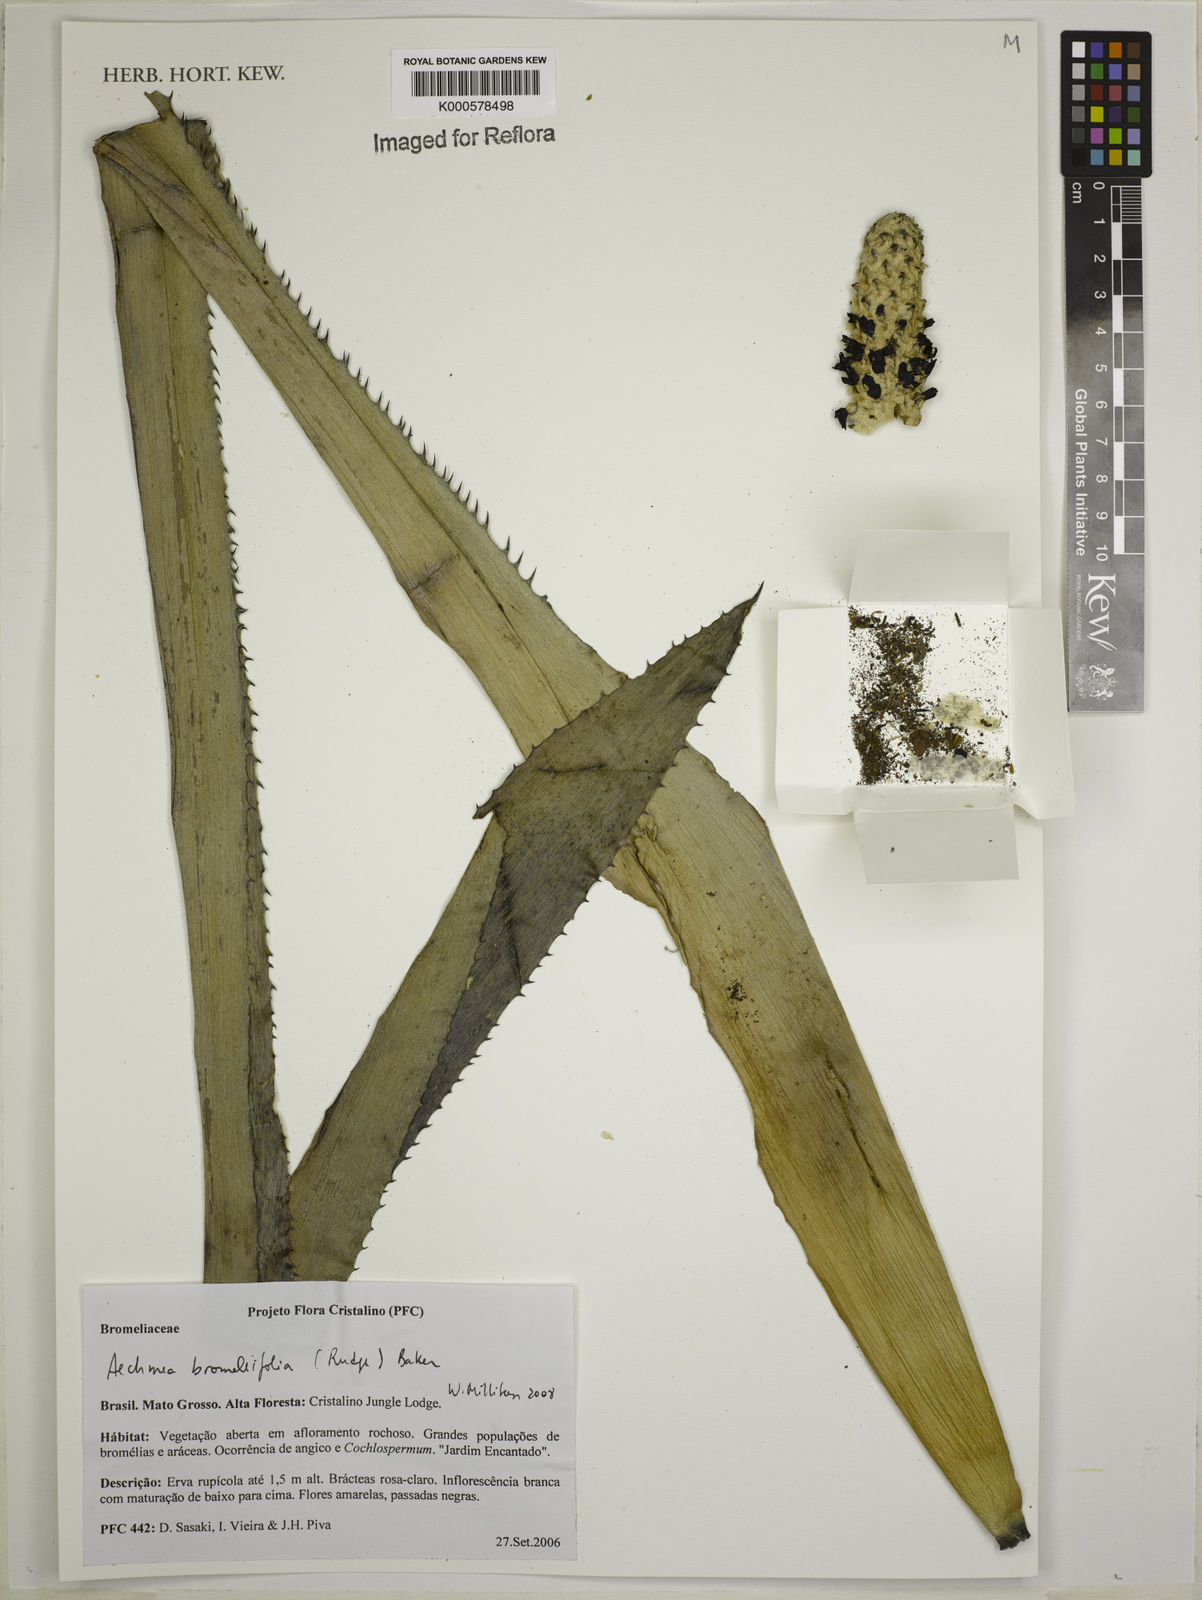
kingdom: Plantae
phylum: Tracheophyta
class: Liliopsida
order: Poales
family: Bromeliaceae
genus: Aechmea
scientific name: Aechmea
